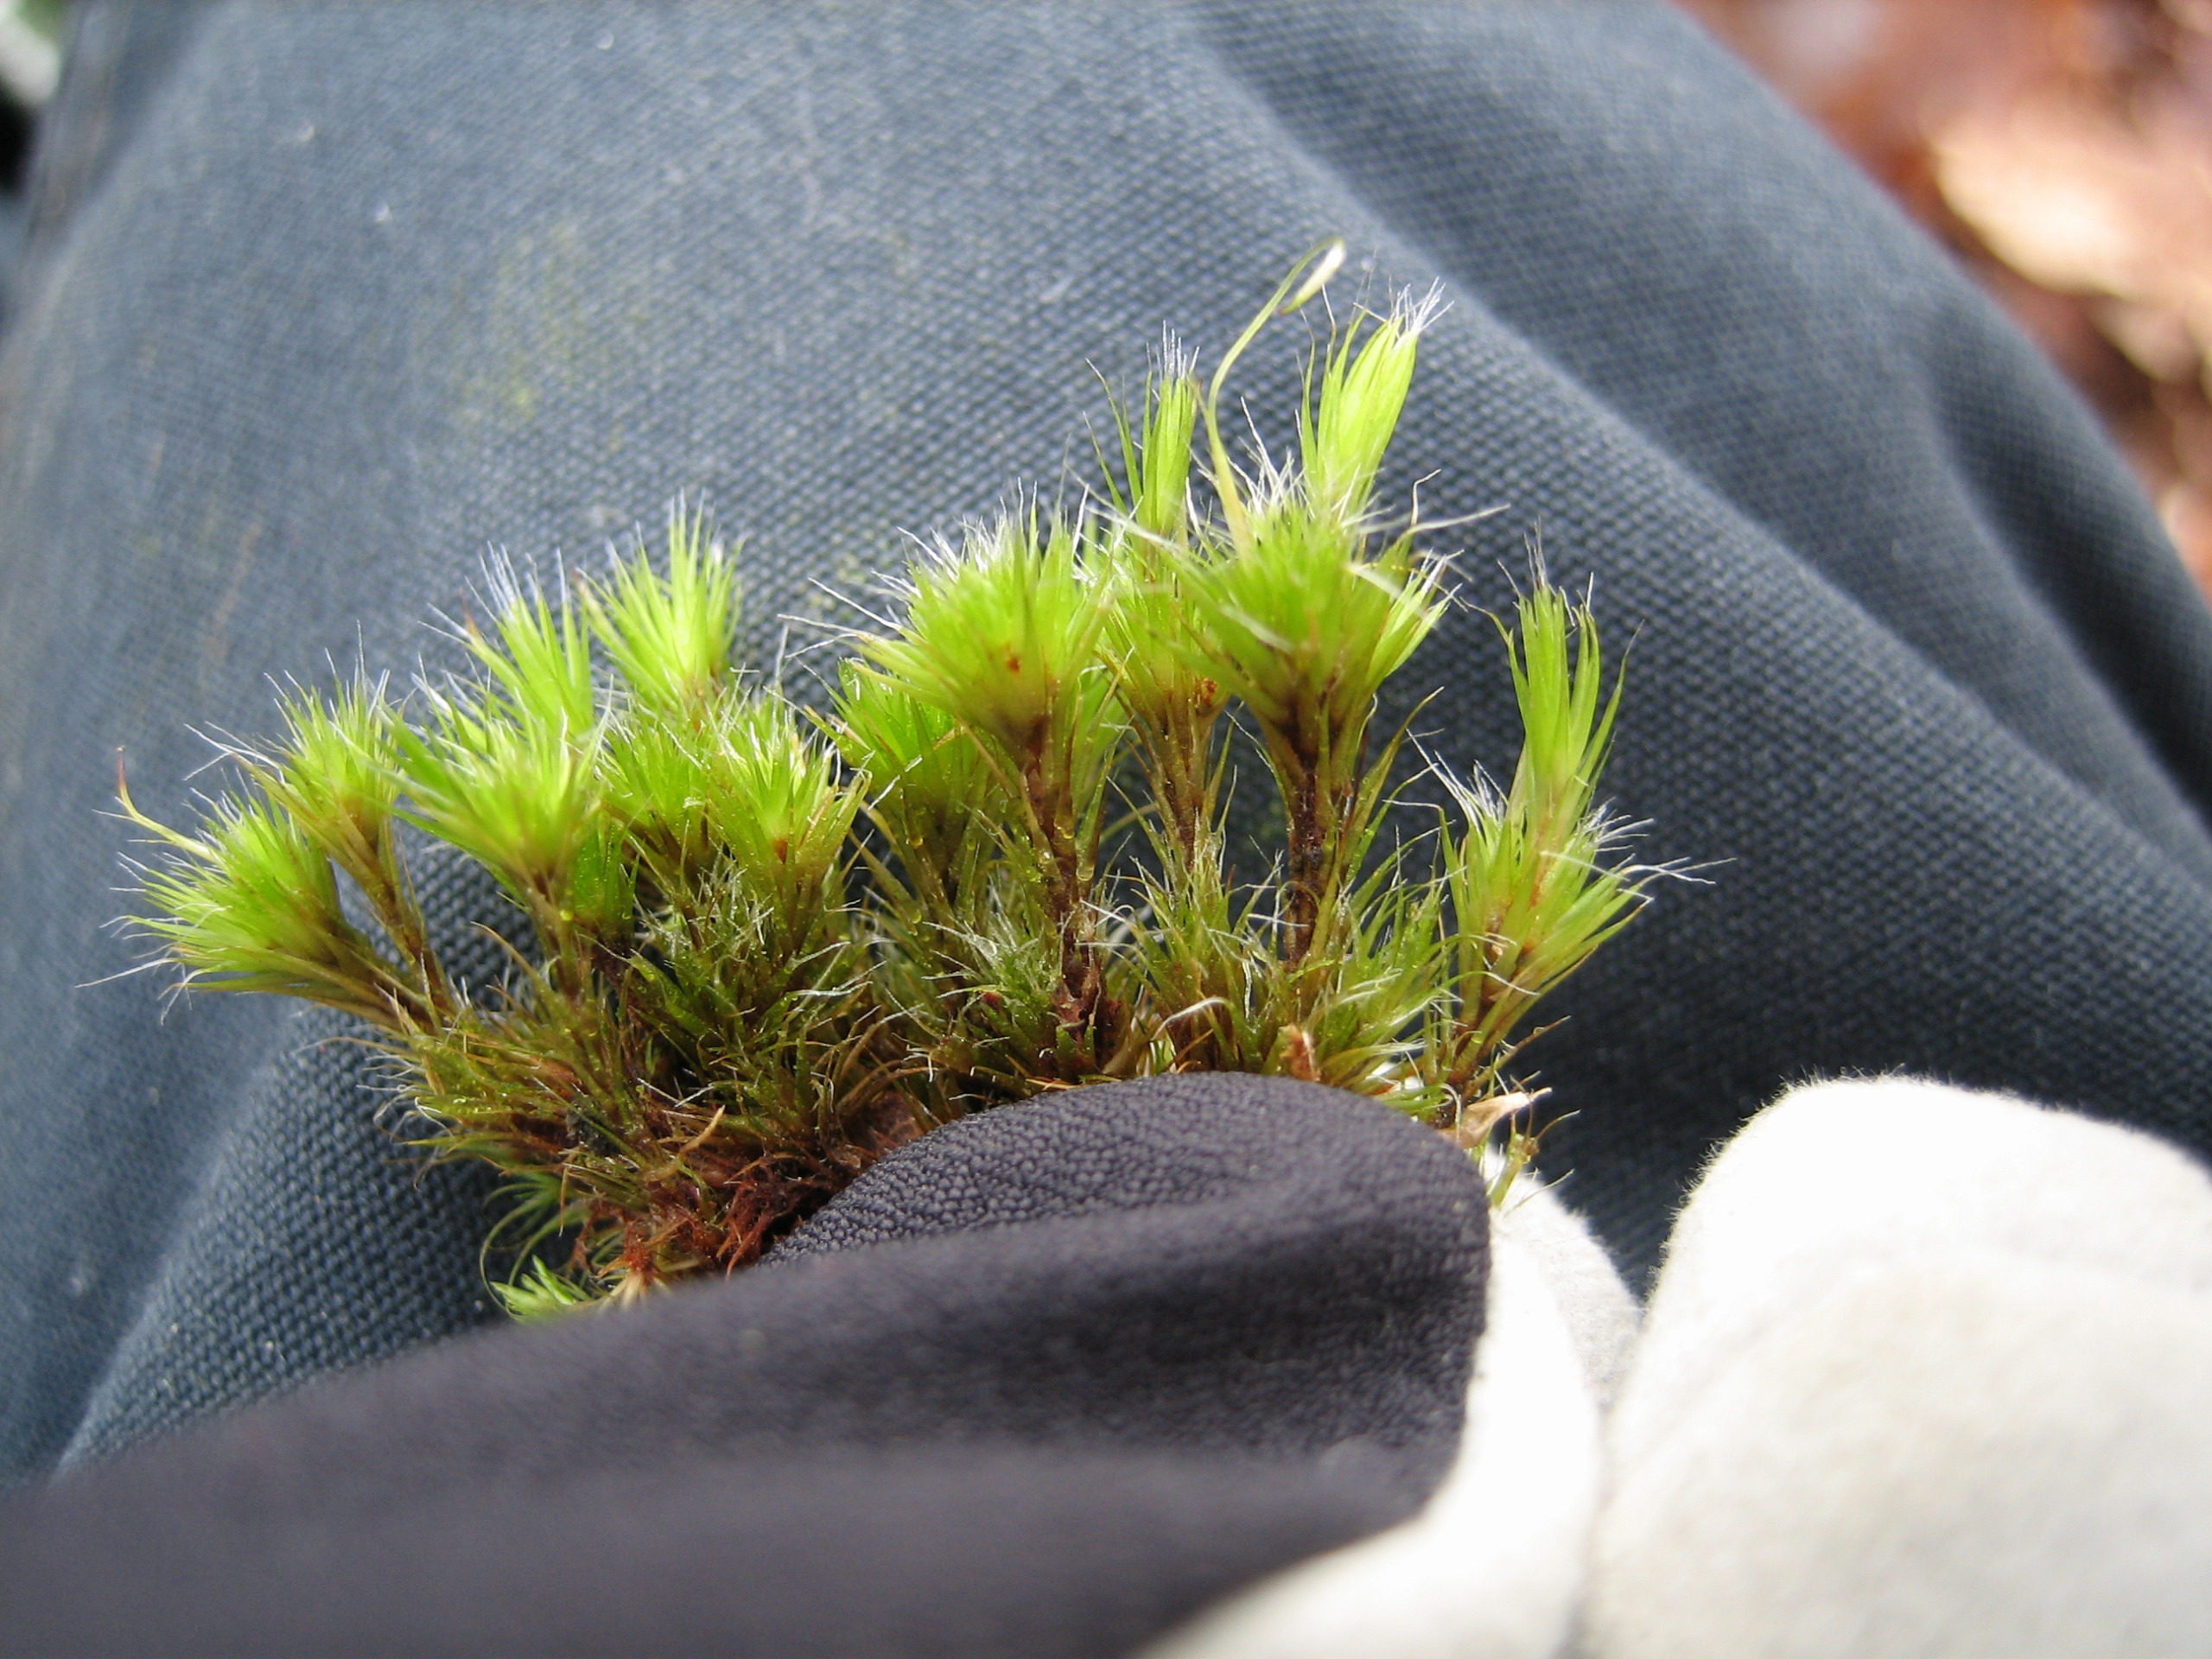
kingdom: Plantae
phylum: Bryophyta
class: Bryopsida
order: Dicranales
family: Leucobryaceae
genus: Campylopus
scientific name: Campylopus introflexus
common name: Stjerne-bredribbe
